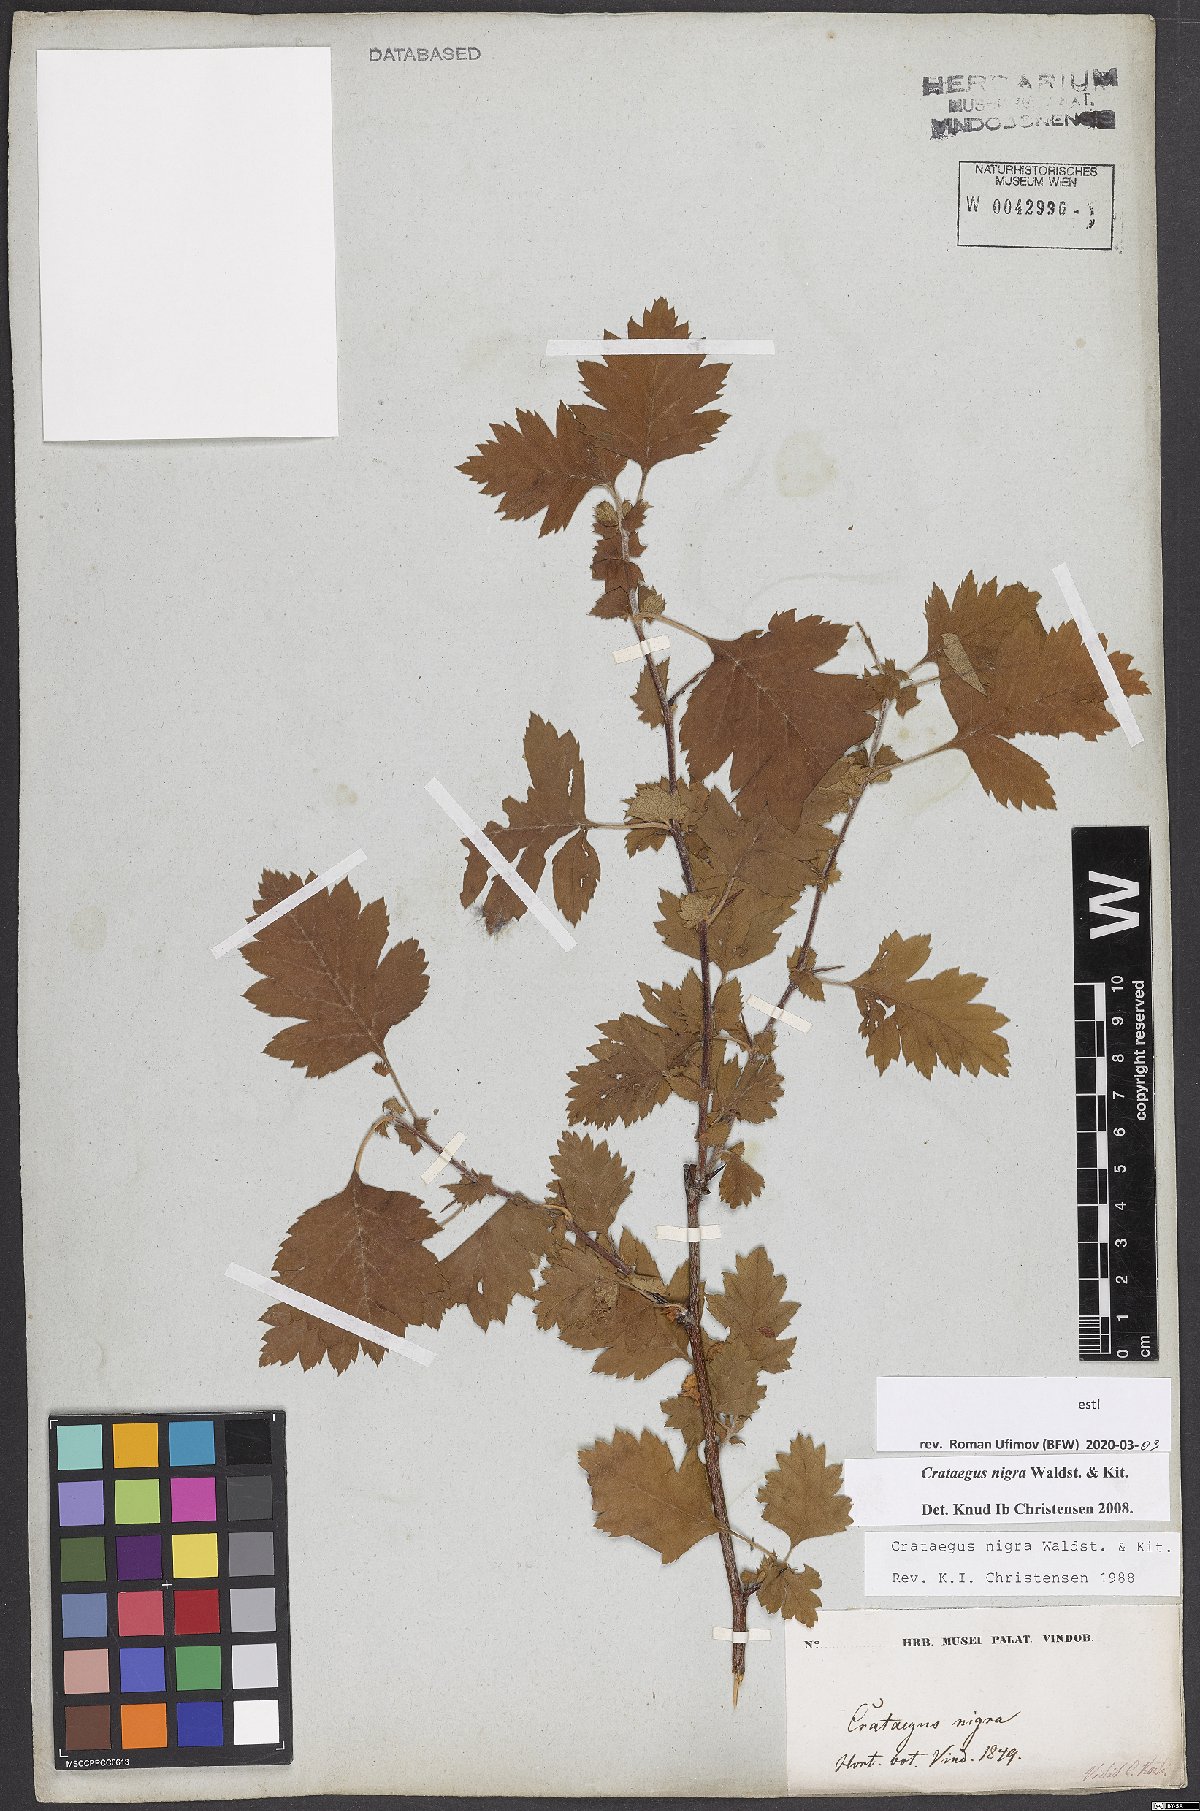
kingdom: Plantae
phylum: Tracheophyta
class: Magnoliopsida
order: Rosales
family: Rosaceae
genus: Crataegus
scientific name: Crataegus nigra
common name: Hungarian thorn
